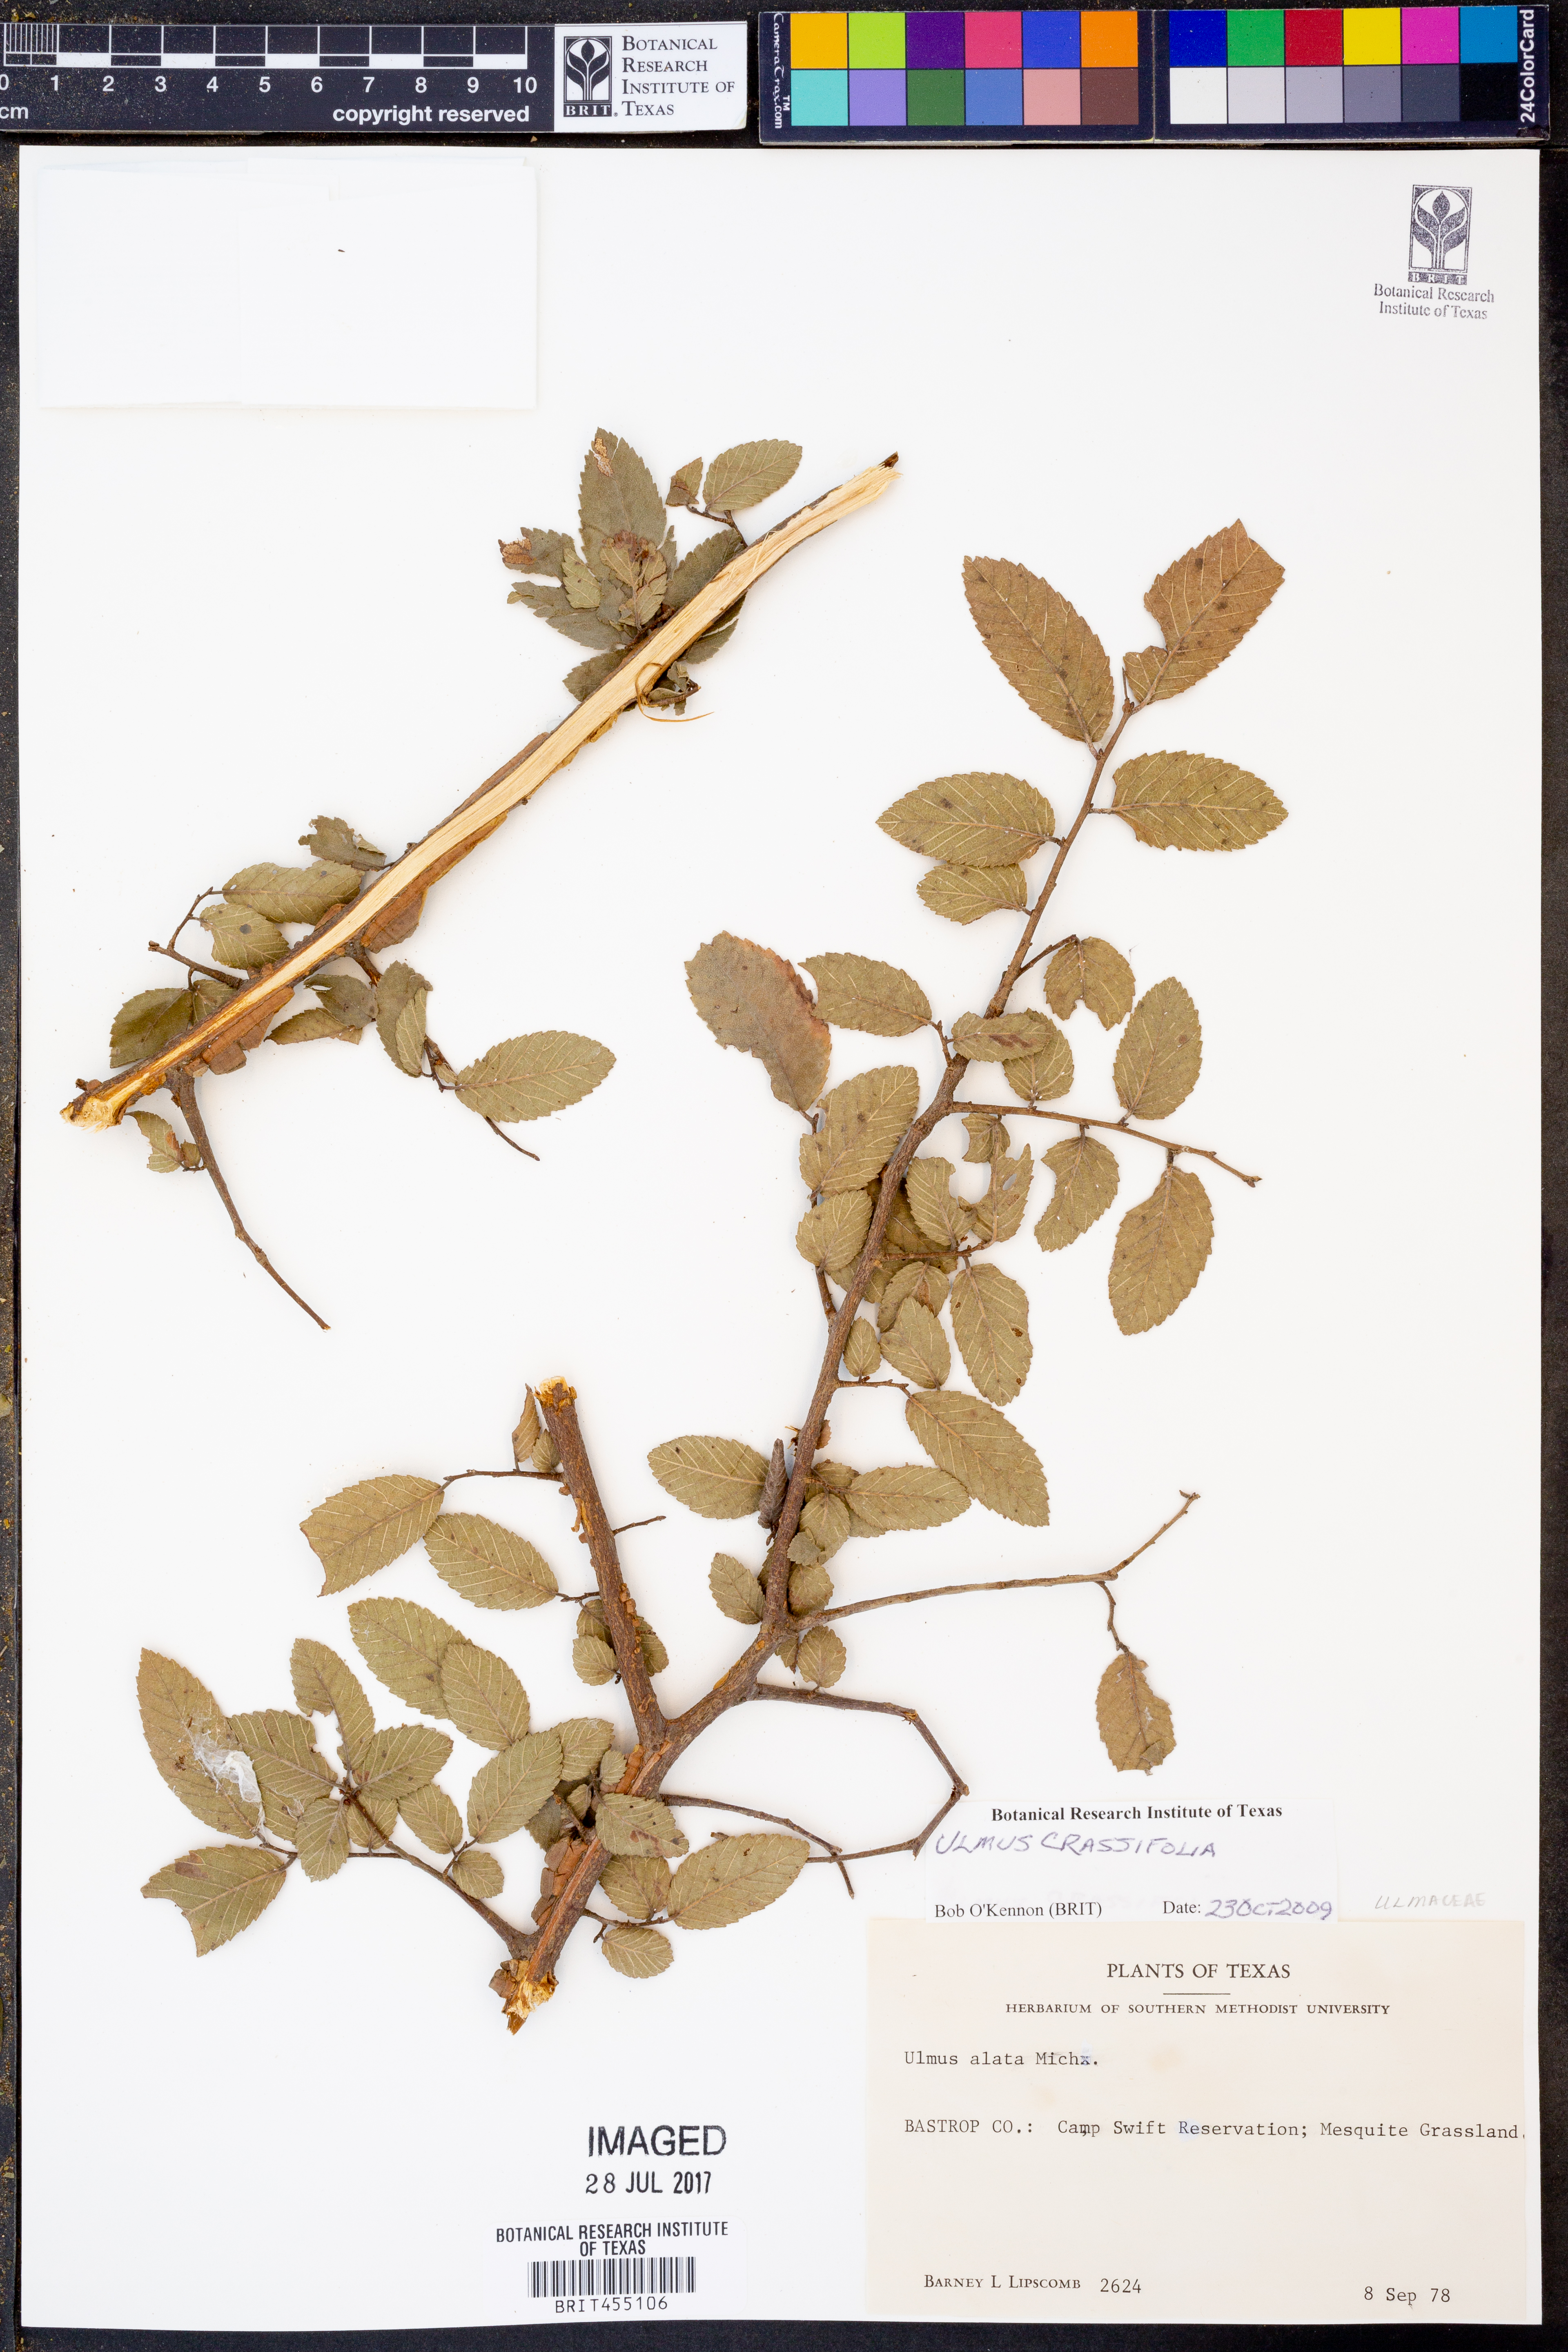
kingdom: Plantae
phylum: Tracheophyta
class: Magnoliopsida
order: Rosales
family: Ulmaceae
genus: Ulmus
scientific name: Ulmus crassifolia
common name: Basket elm
